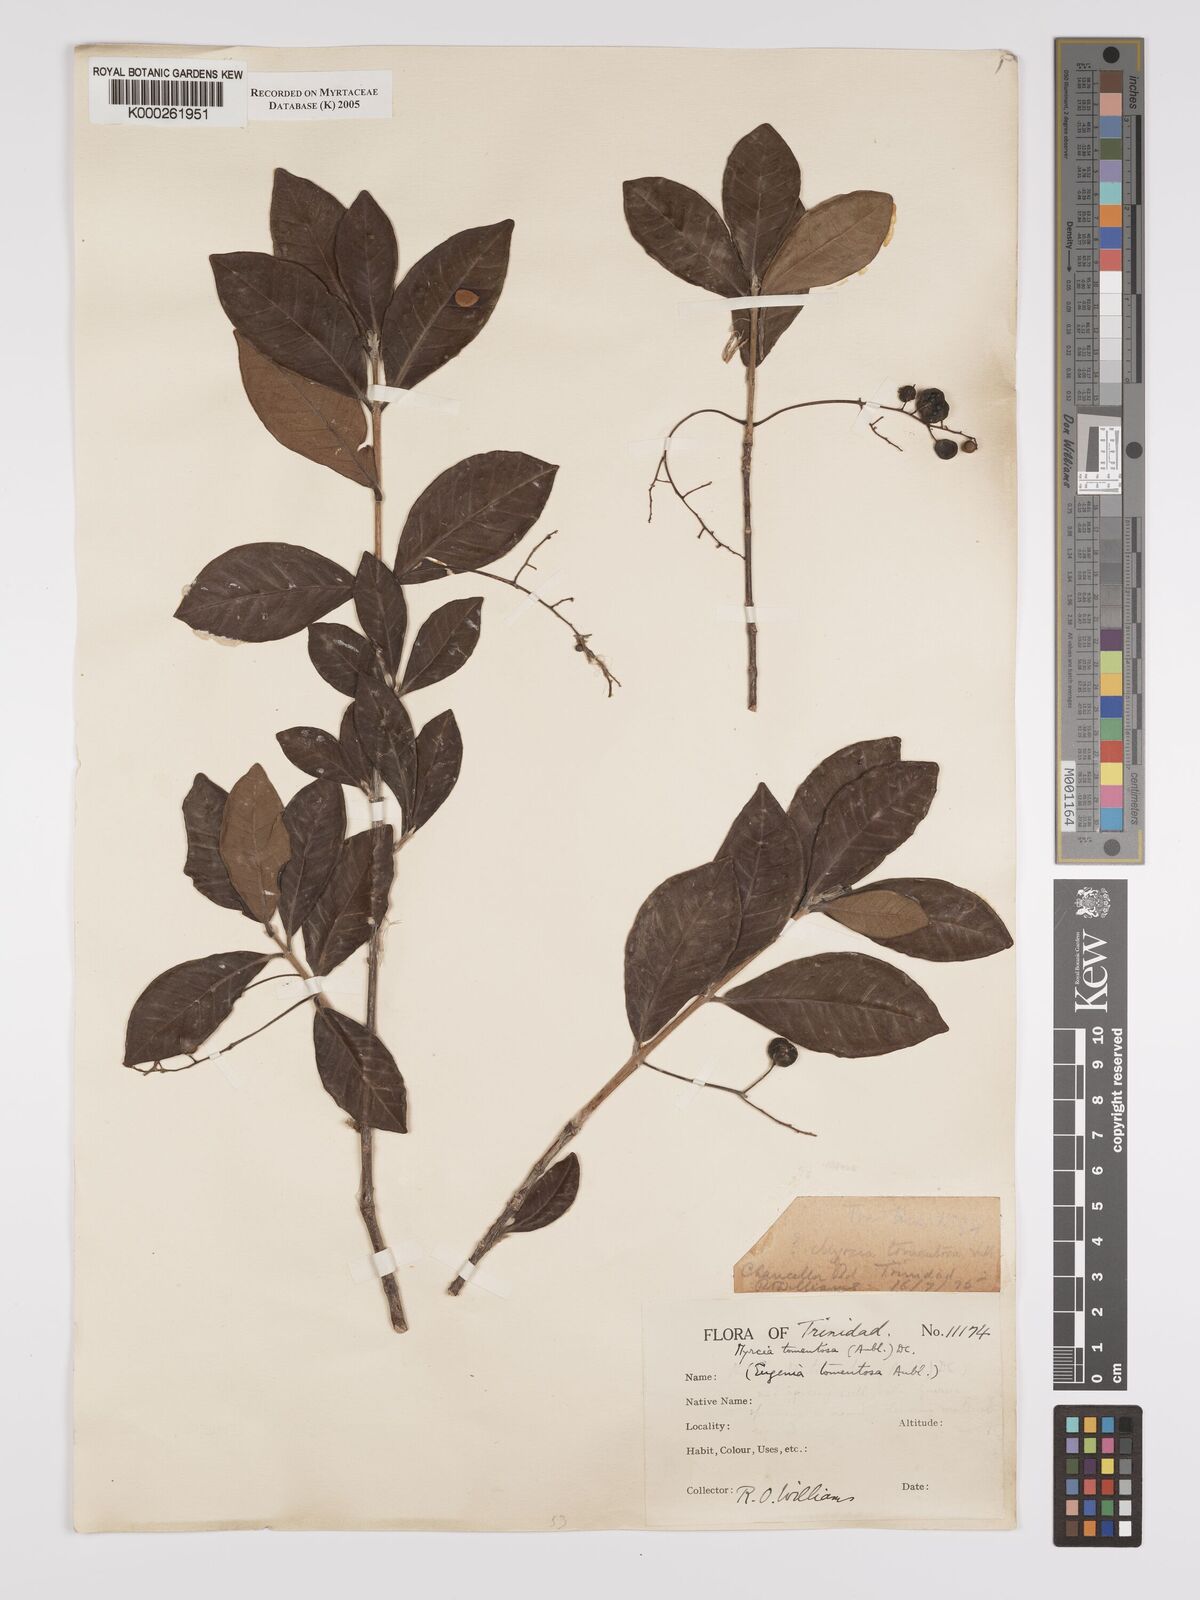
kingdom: Plantae
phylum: Tracheophyta
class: Magnoliopsida
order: Myrtales
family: Myrtaceae
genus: Myrcia
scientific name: Myrcia tomentosa
